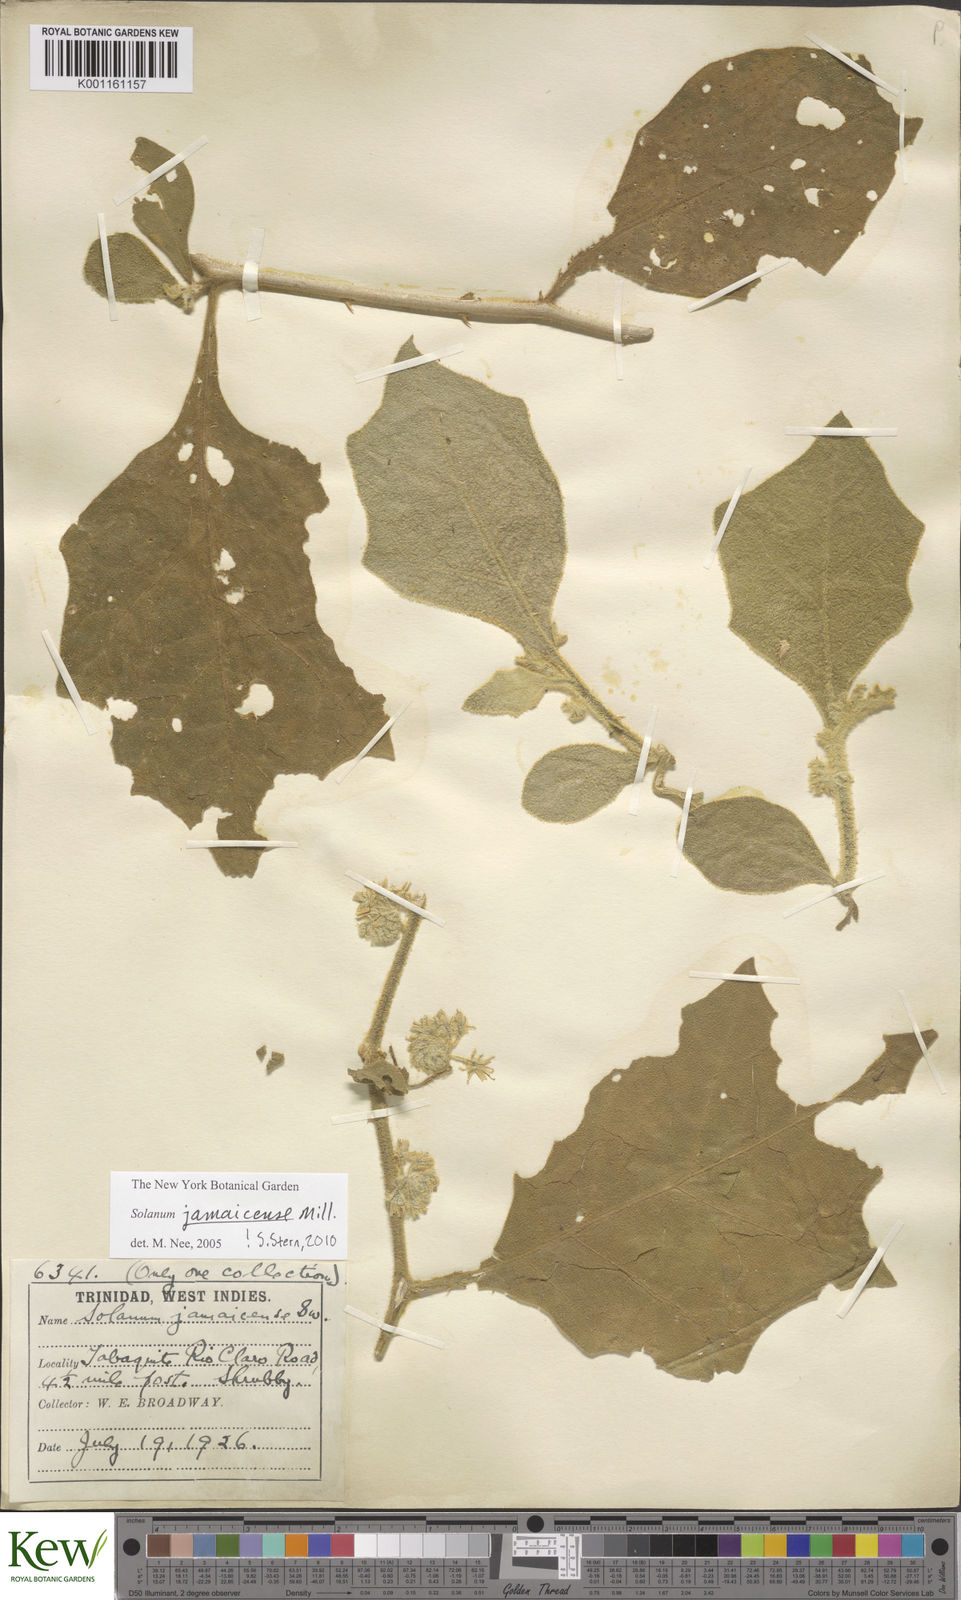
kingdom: Plantae
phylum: Tracheophyta
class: Magnoliopsida
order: Solanales
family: Solanaceae
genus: Solanum
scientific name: Solanum jamaicense
